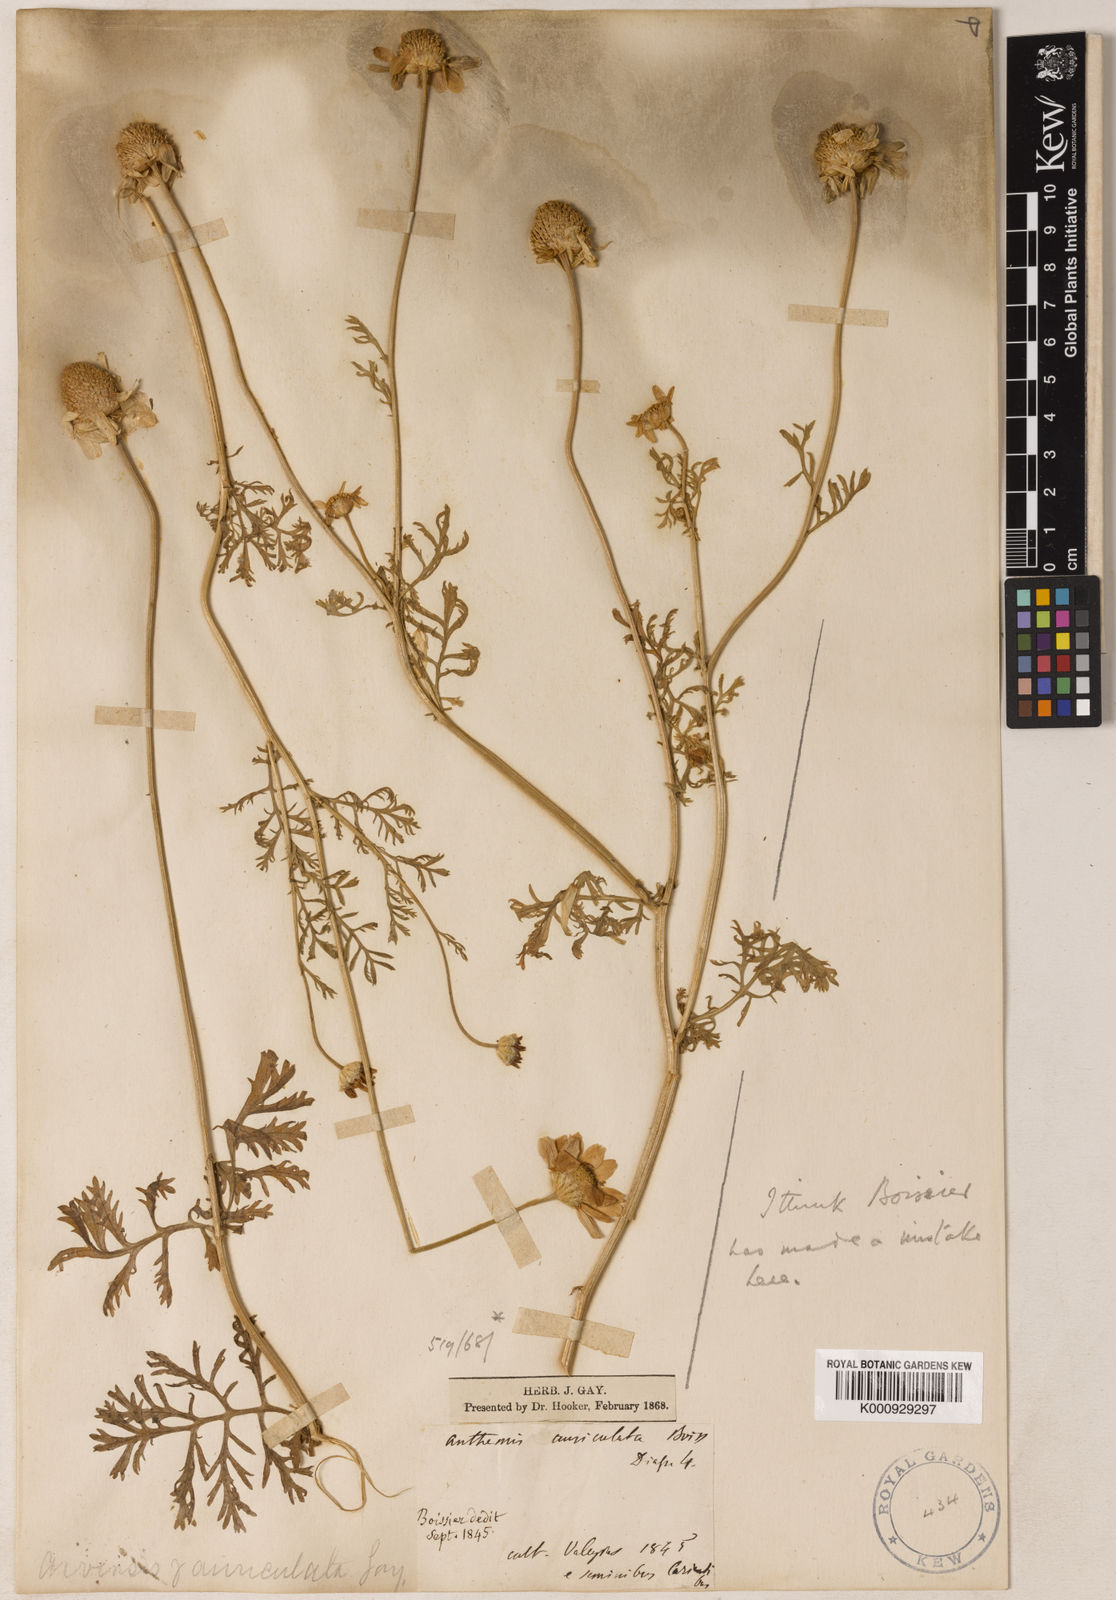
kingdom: Plantae
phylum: Tracheophyta
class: Magnoliopsida
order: Asterales
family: Asteraceae
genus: Anthemis
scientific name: Anthemis auriculata
